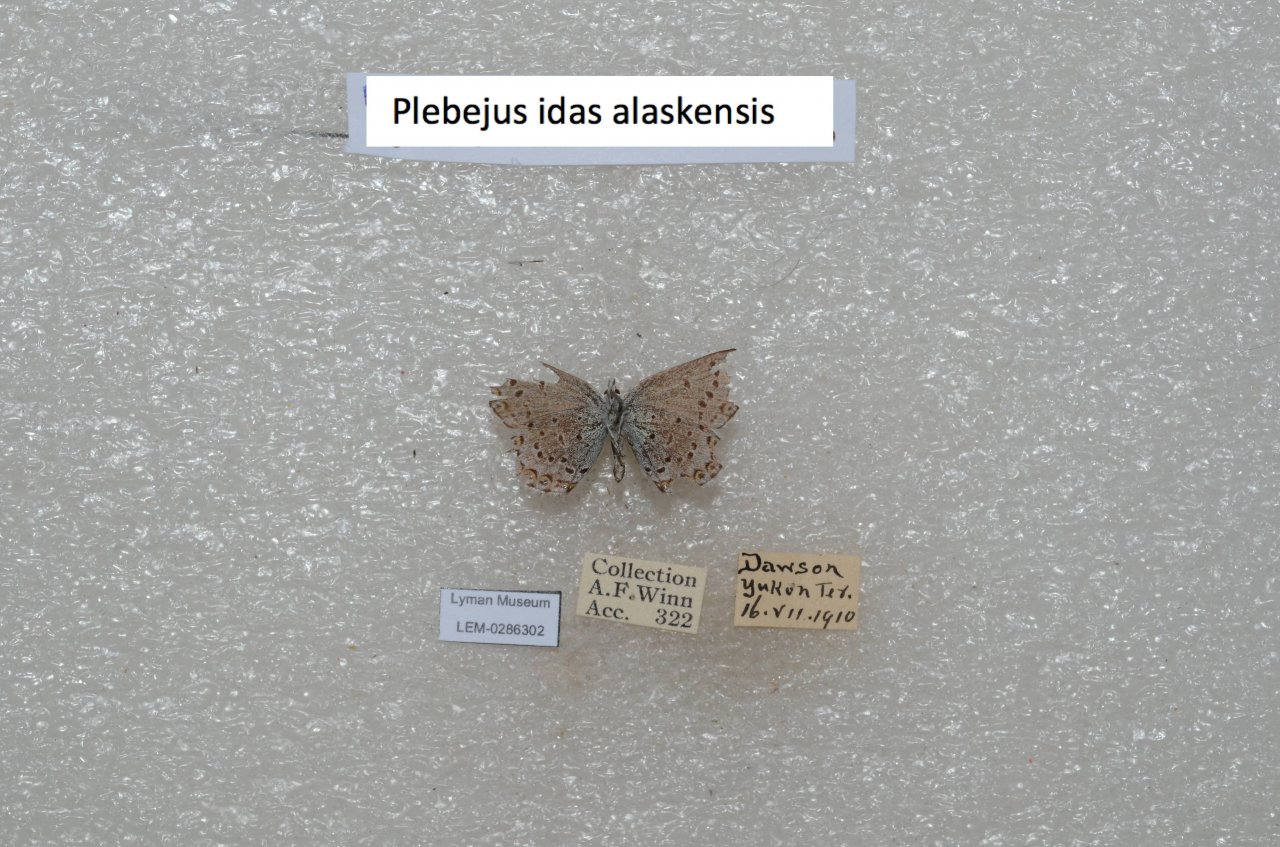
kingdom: Animalia
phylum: Arthropoda
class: Insecta
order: Lepidoptera
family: Lycaenidae
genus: Lycaeides
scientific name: Lycaeides idas
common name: Northern Blue
